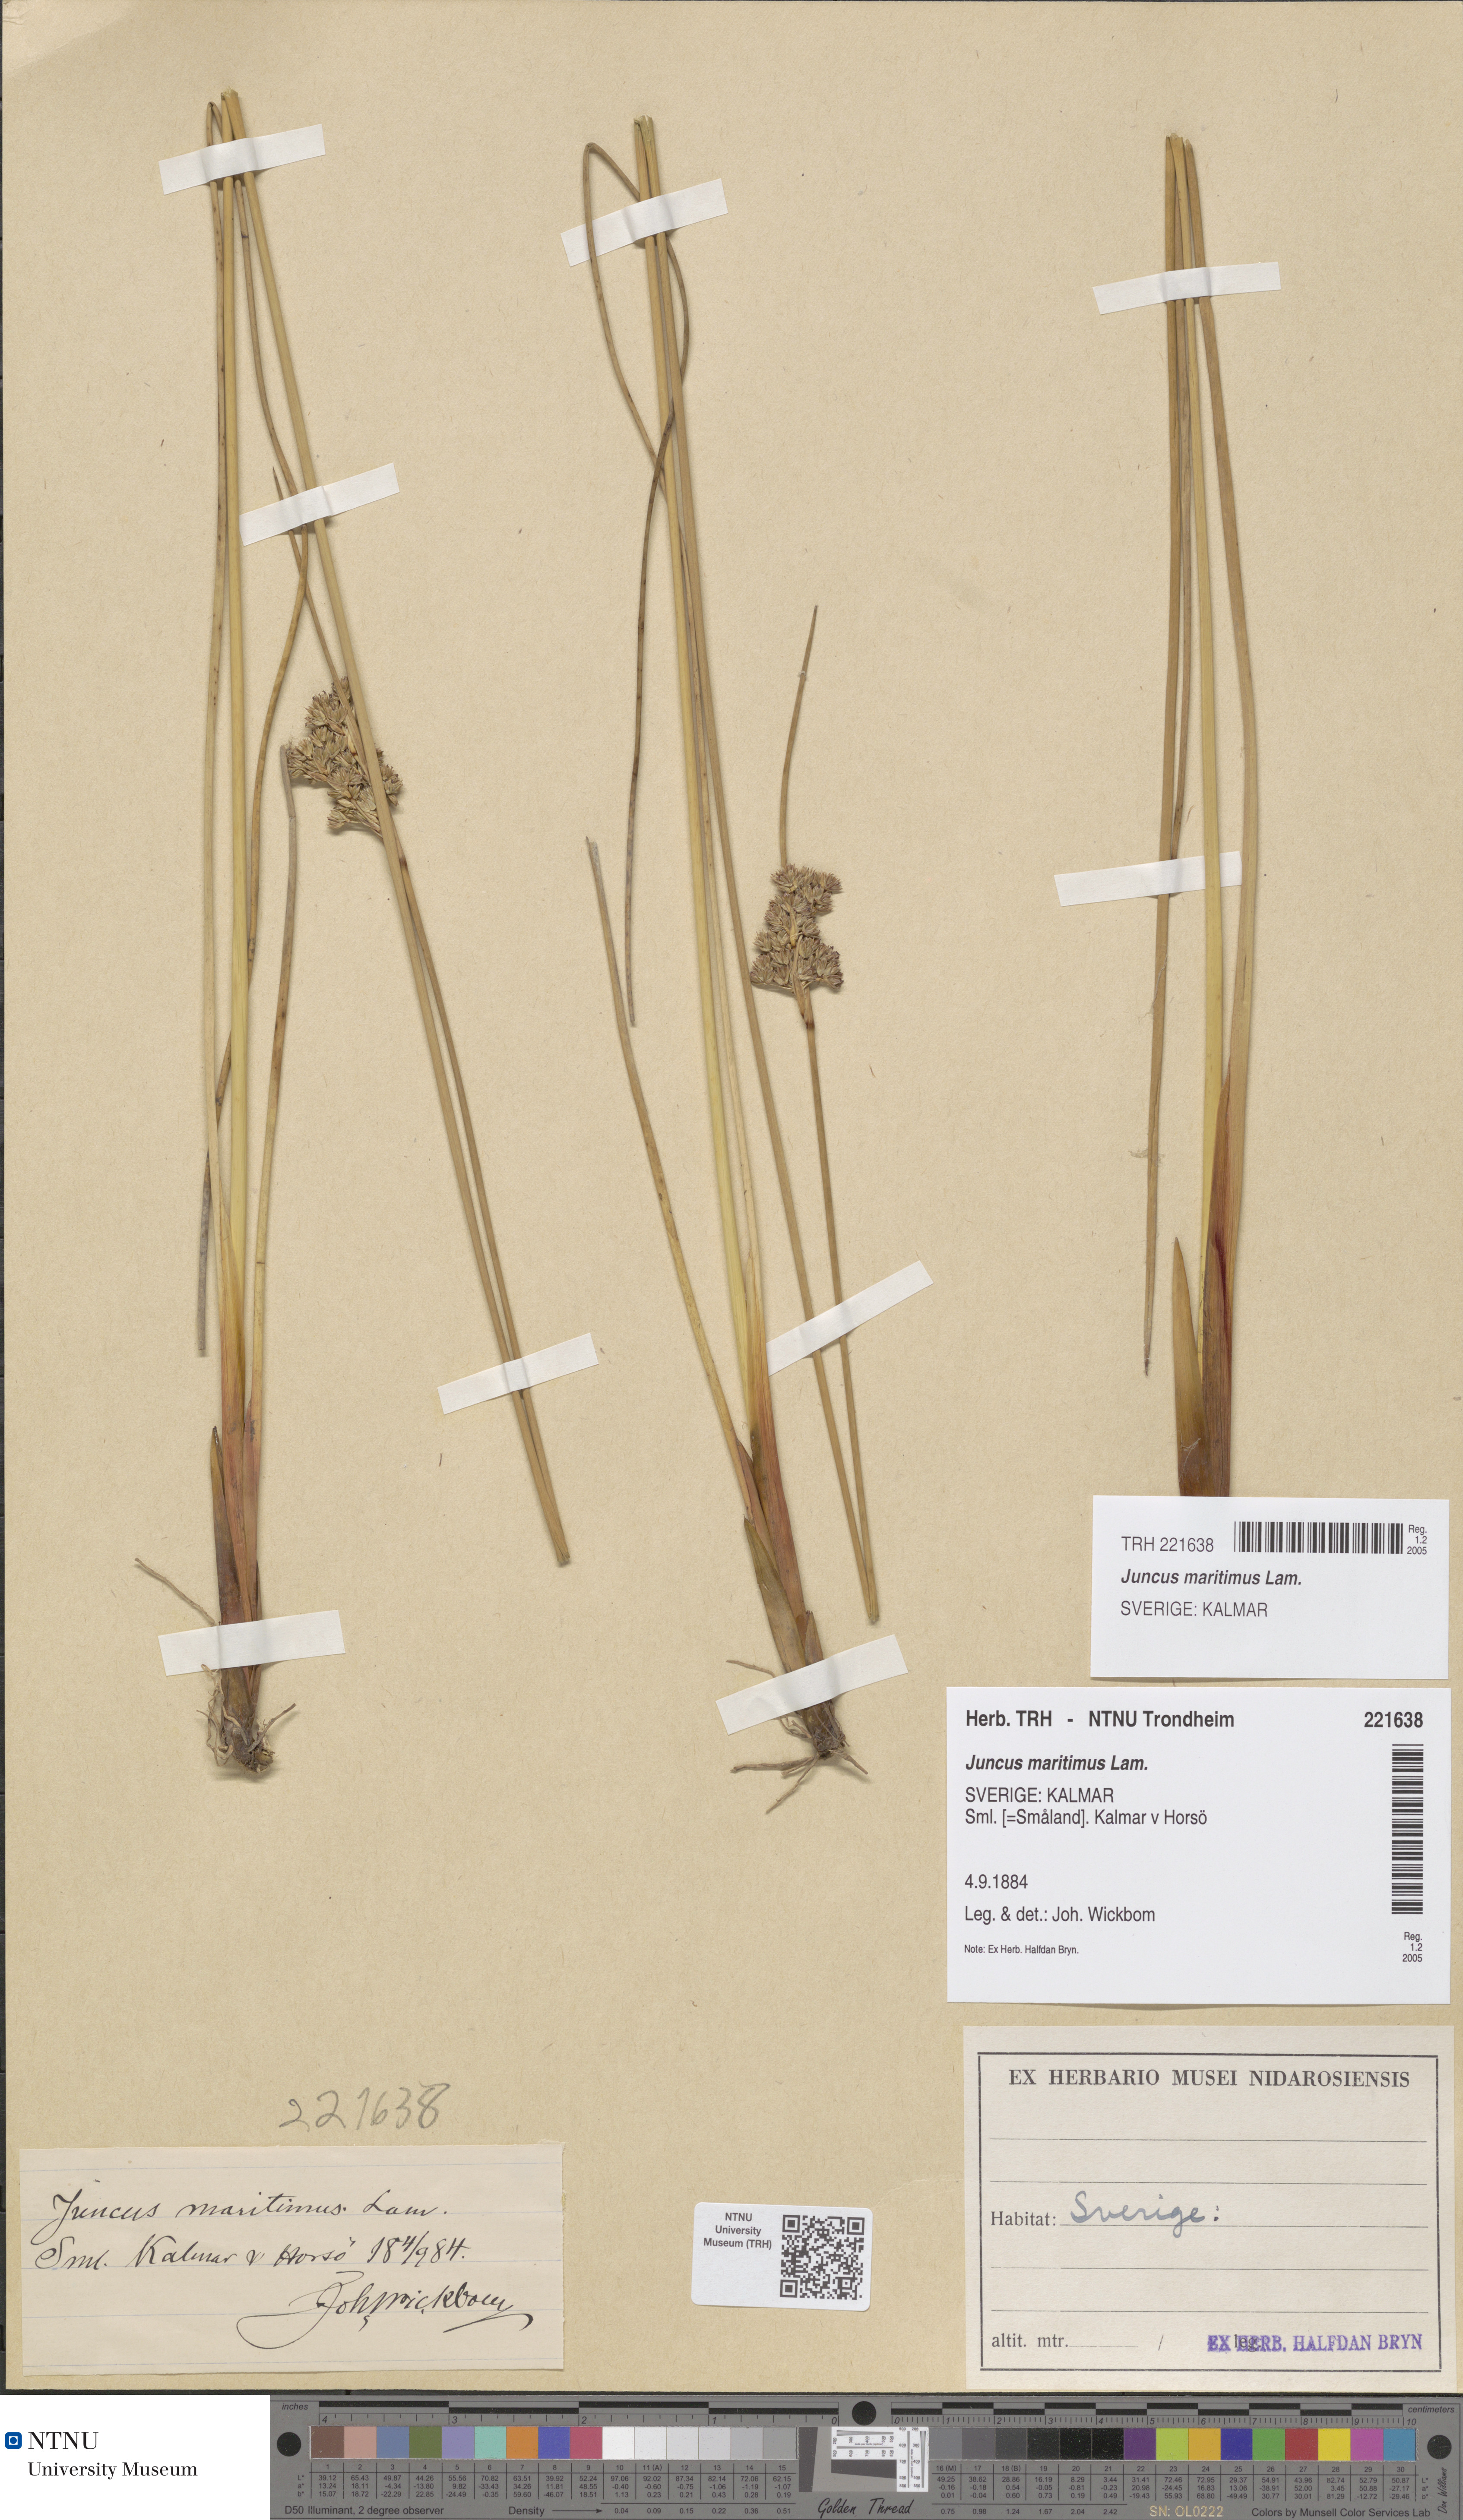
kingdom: Plantae
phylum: Tracheophyta
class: Liliopsida
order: Poales
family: Juncaceae
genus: Juncus
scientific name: Juncus maritimus
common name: Sea rush
